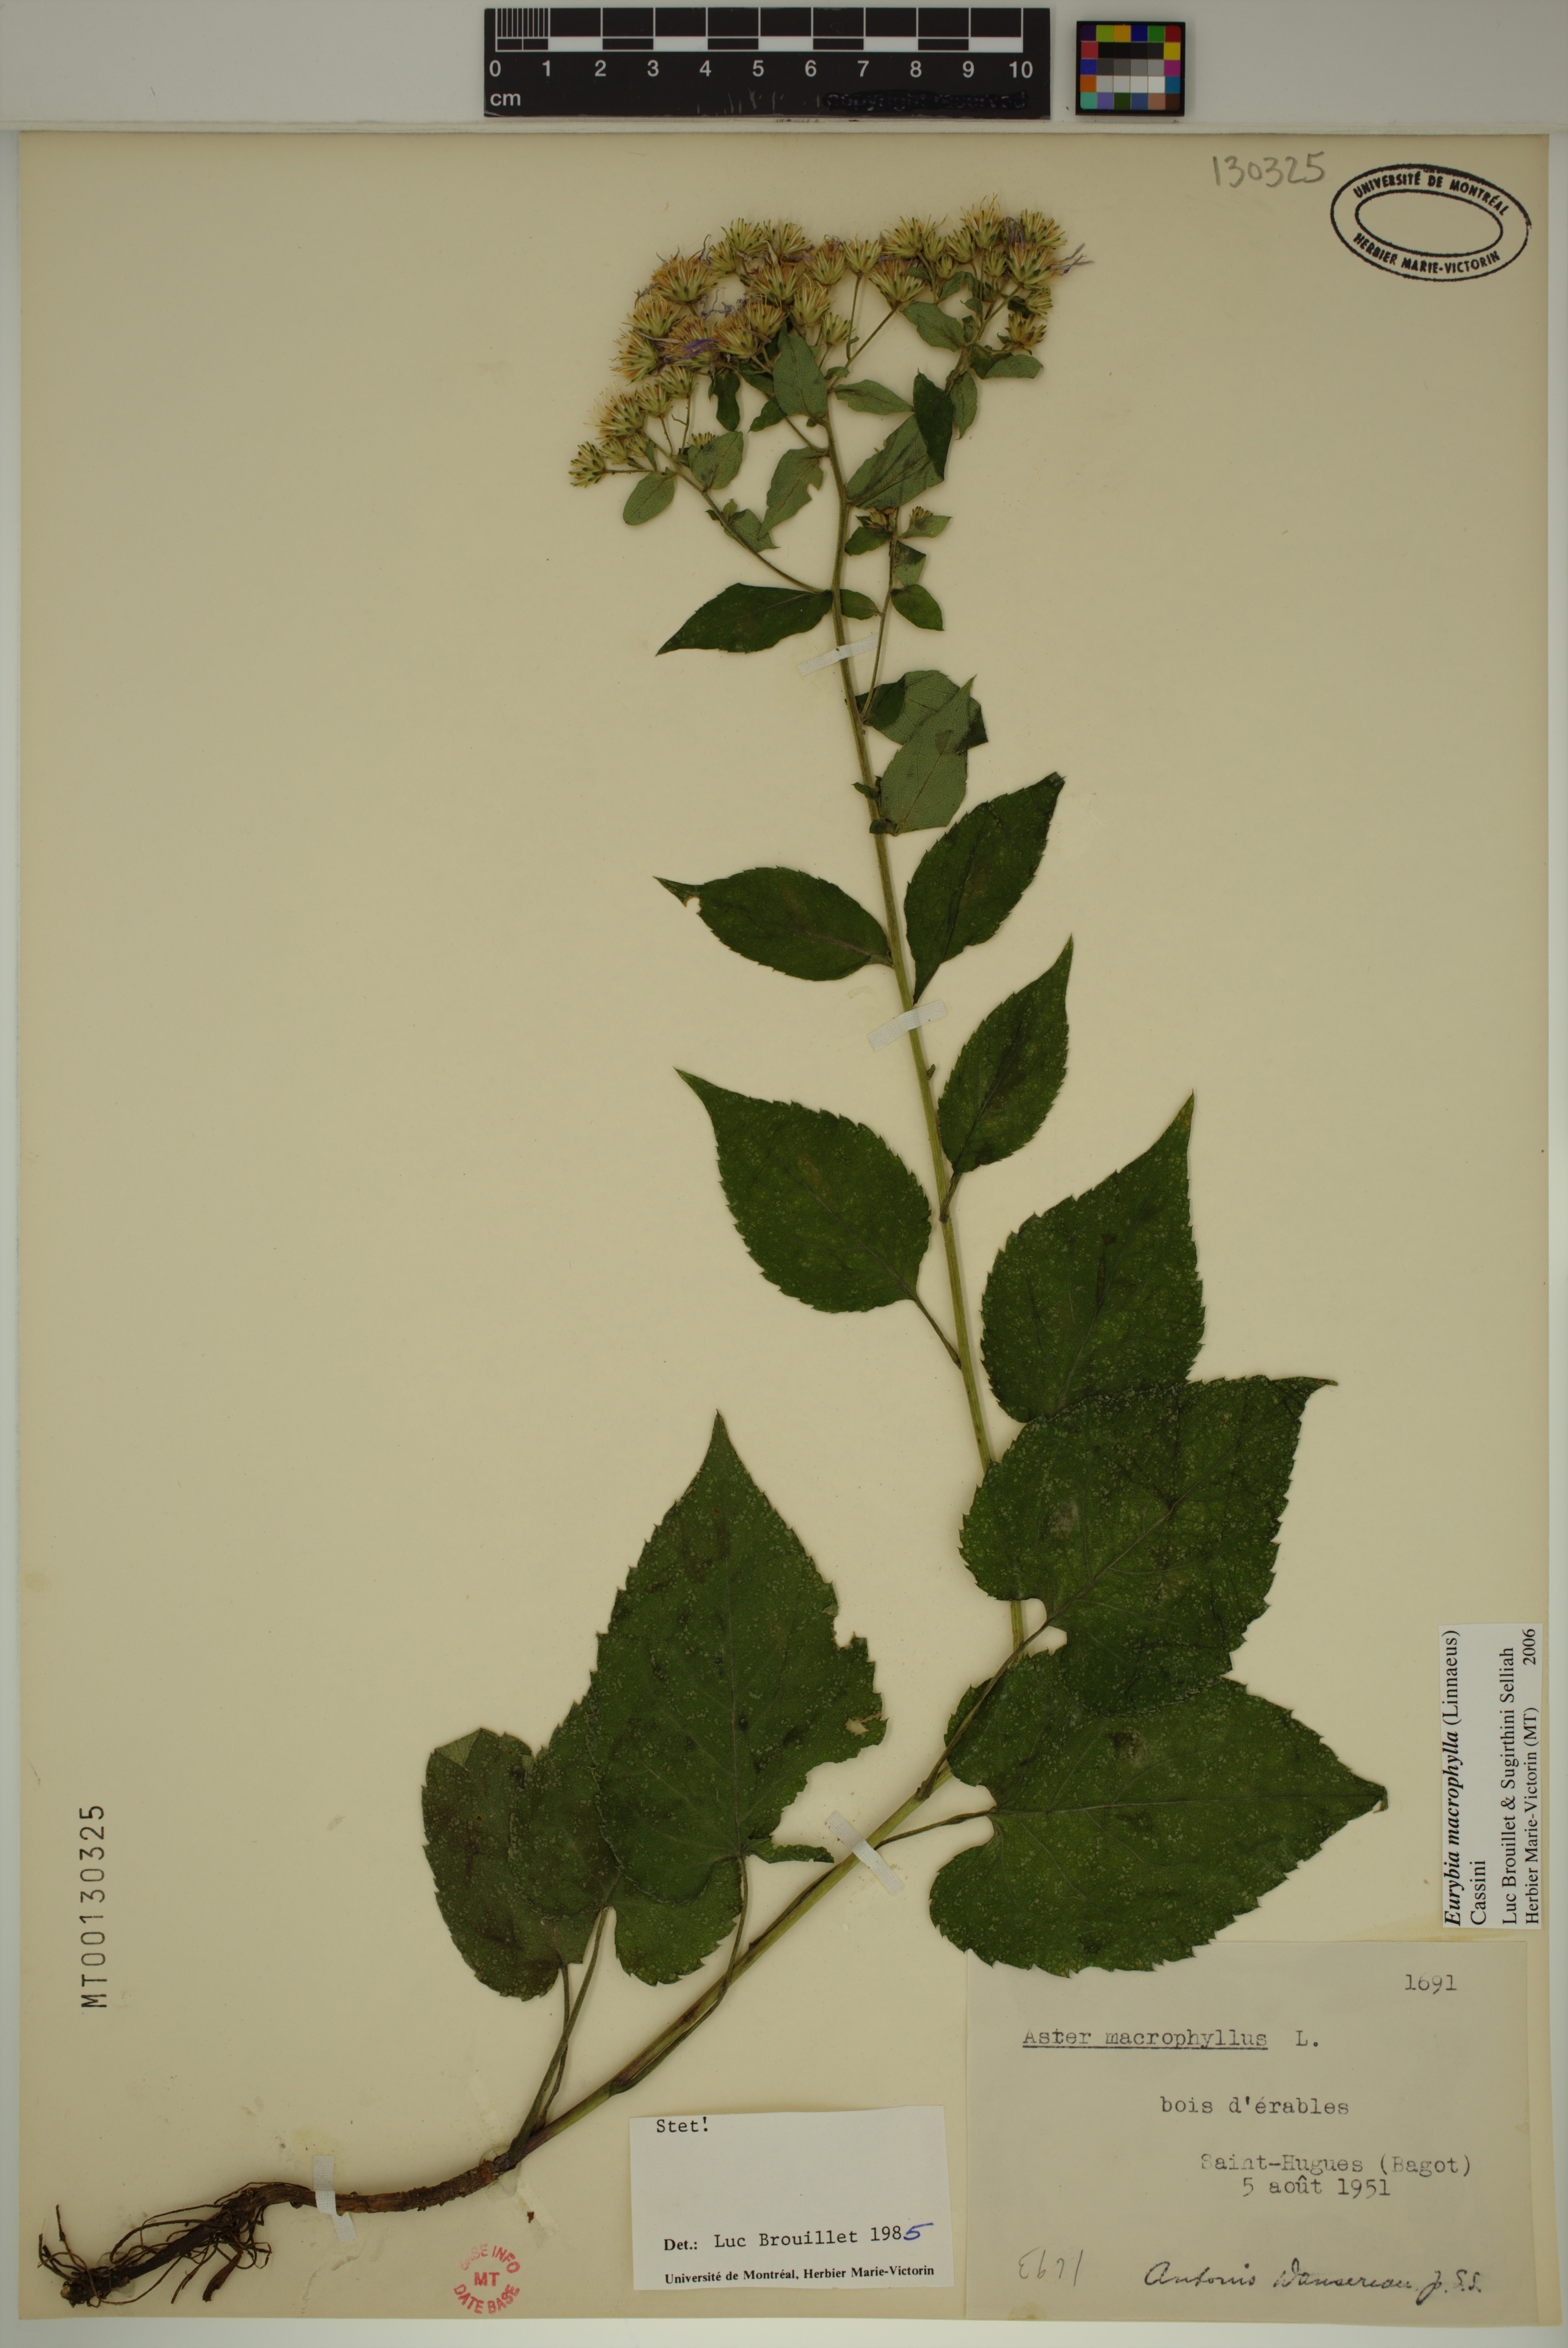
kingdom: Plantae
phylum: Tracheophyta
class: Magnoliopsida
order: Asterales
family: Asteraceae
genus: Eurybia
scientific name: Eurybia macrophylla
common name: Big-leaved aster
